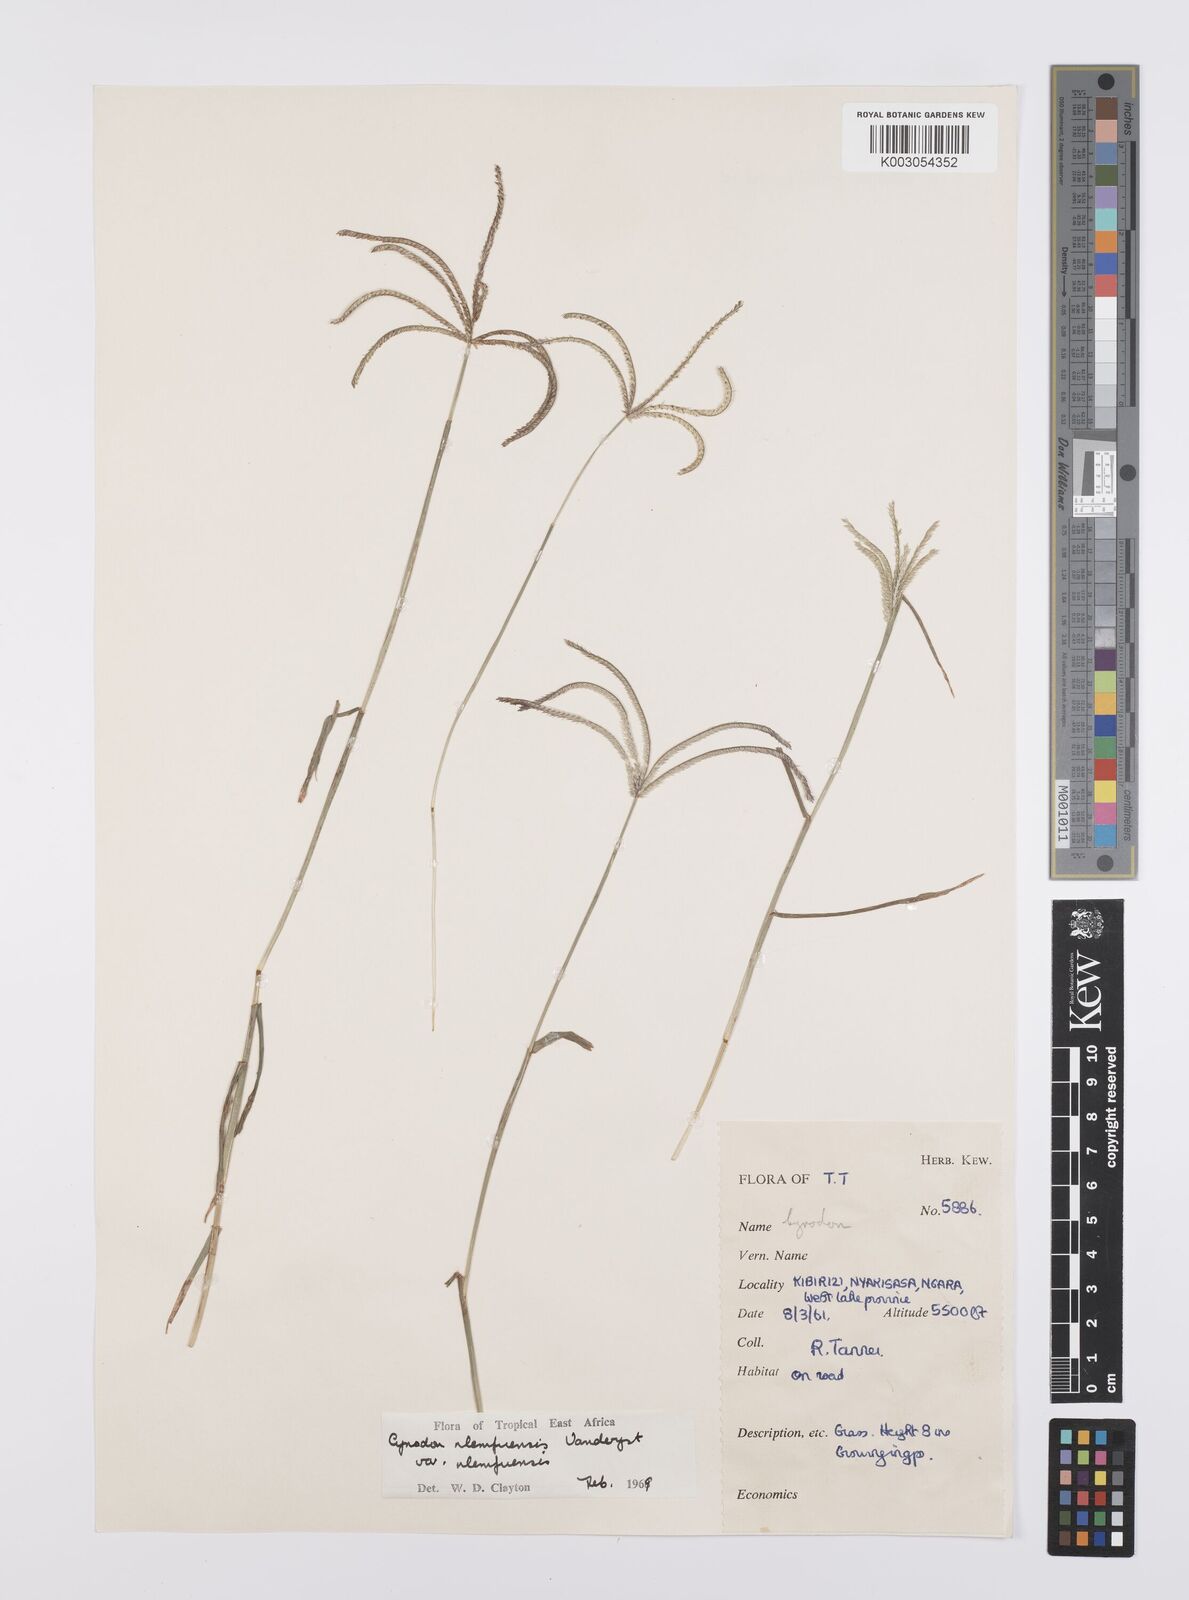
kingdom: Plantae
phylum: Tracheophyta
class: Liliopsida
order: Poales
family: Poaceae
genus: Cynodon
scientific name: Cynodon nlemfuensis
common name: African bermudagrass
